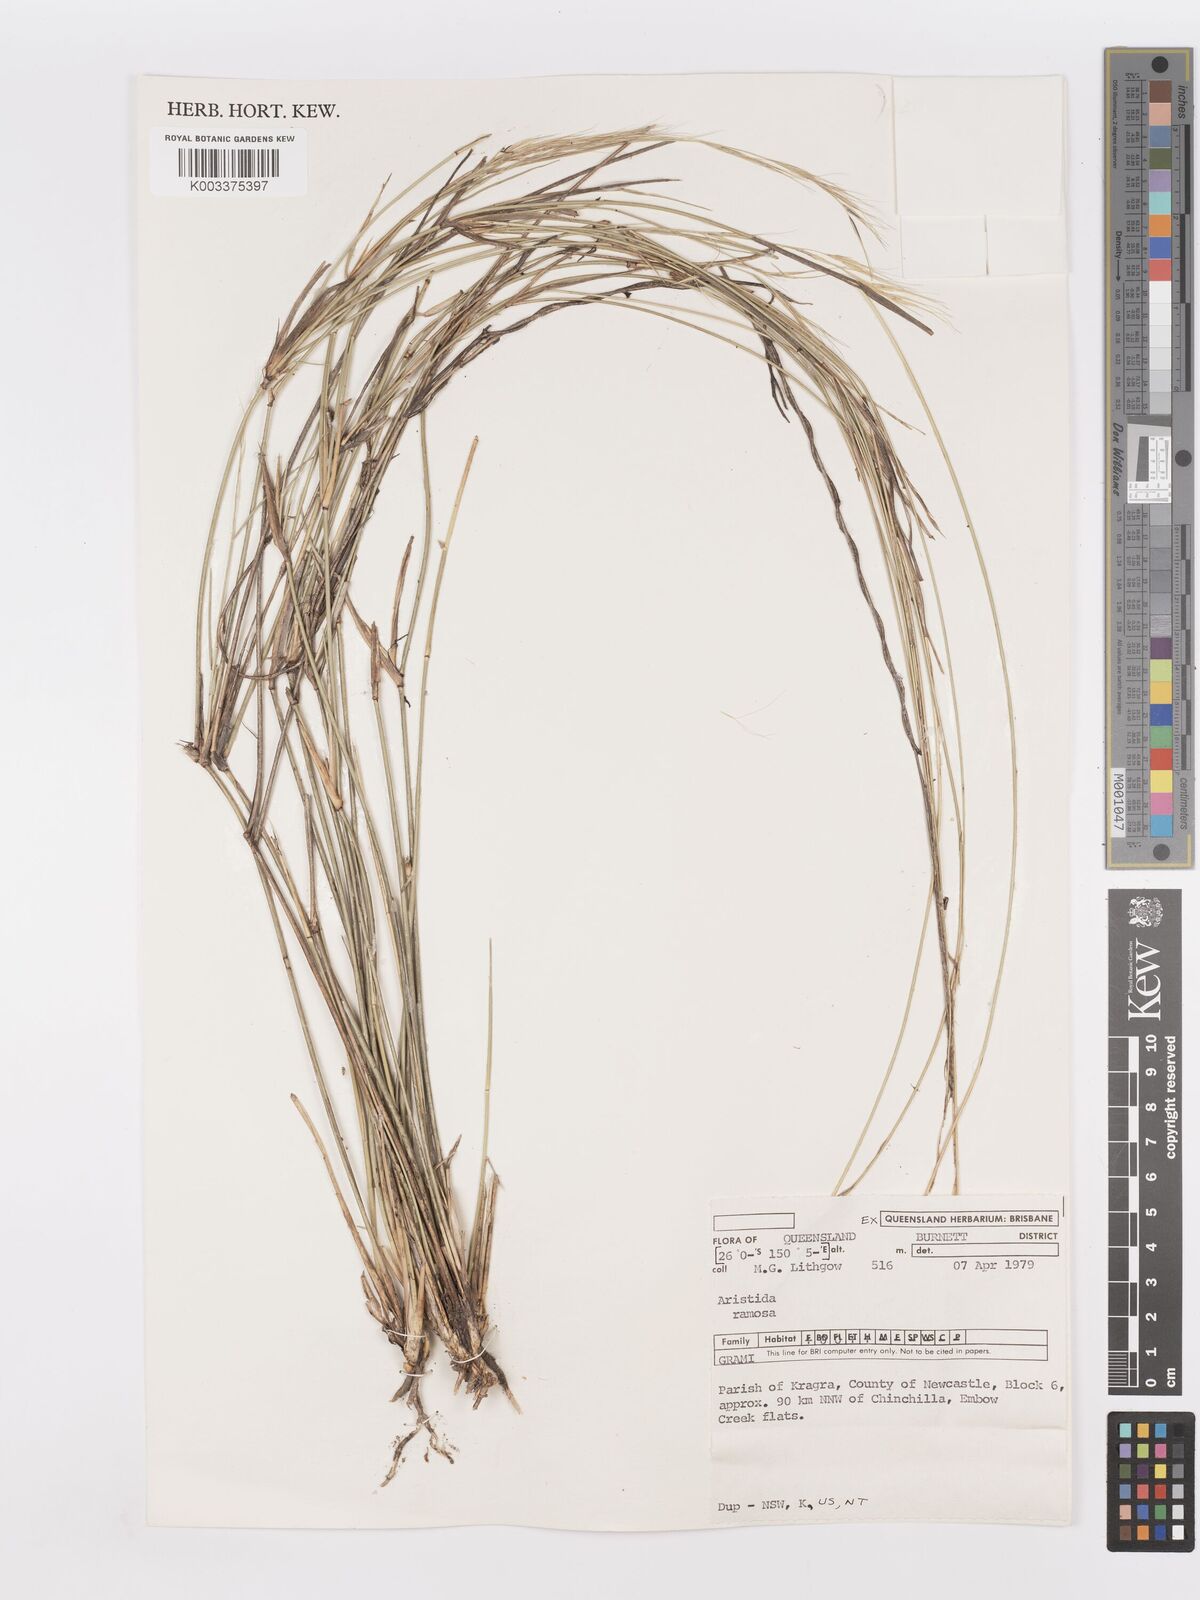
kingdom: Plantae
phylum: Tracheophyta
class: Liliopsida
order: Poales
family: Poaceae
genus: Aristida
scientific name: Aristida ramosa
